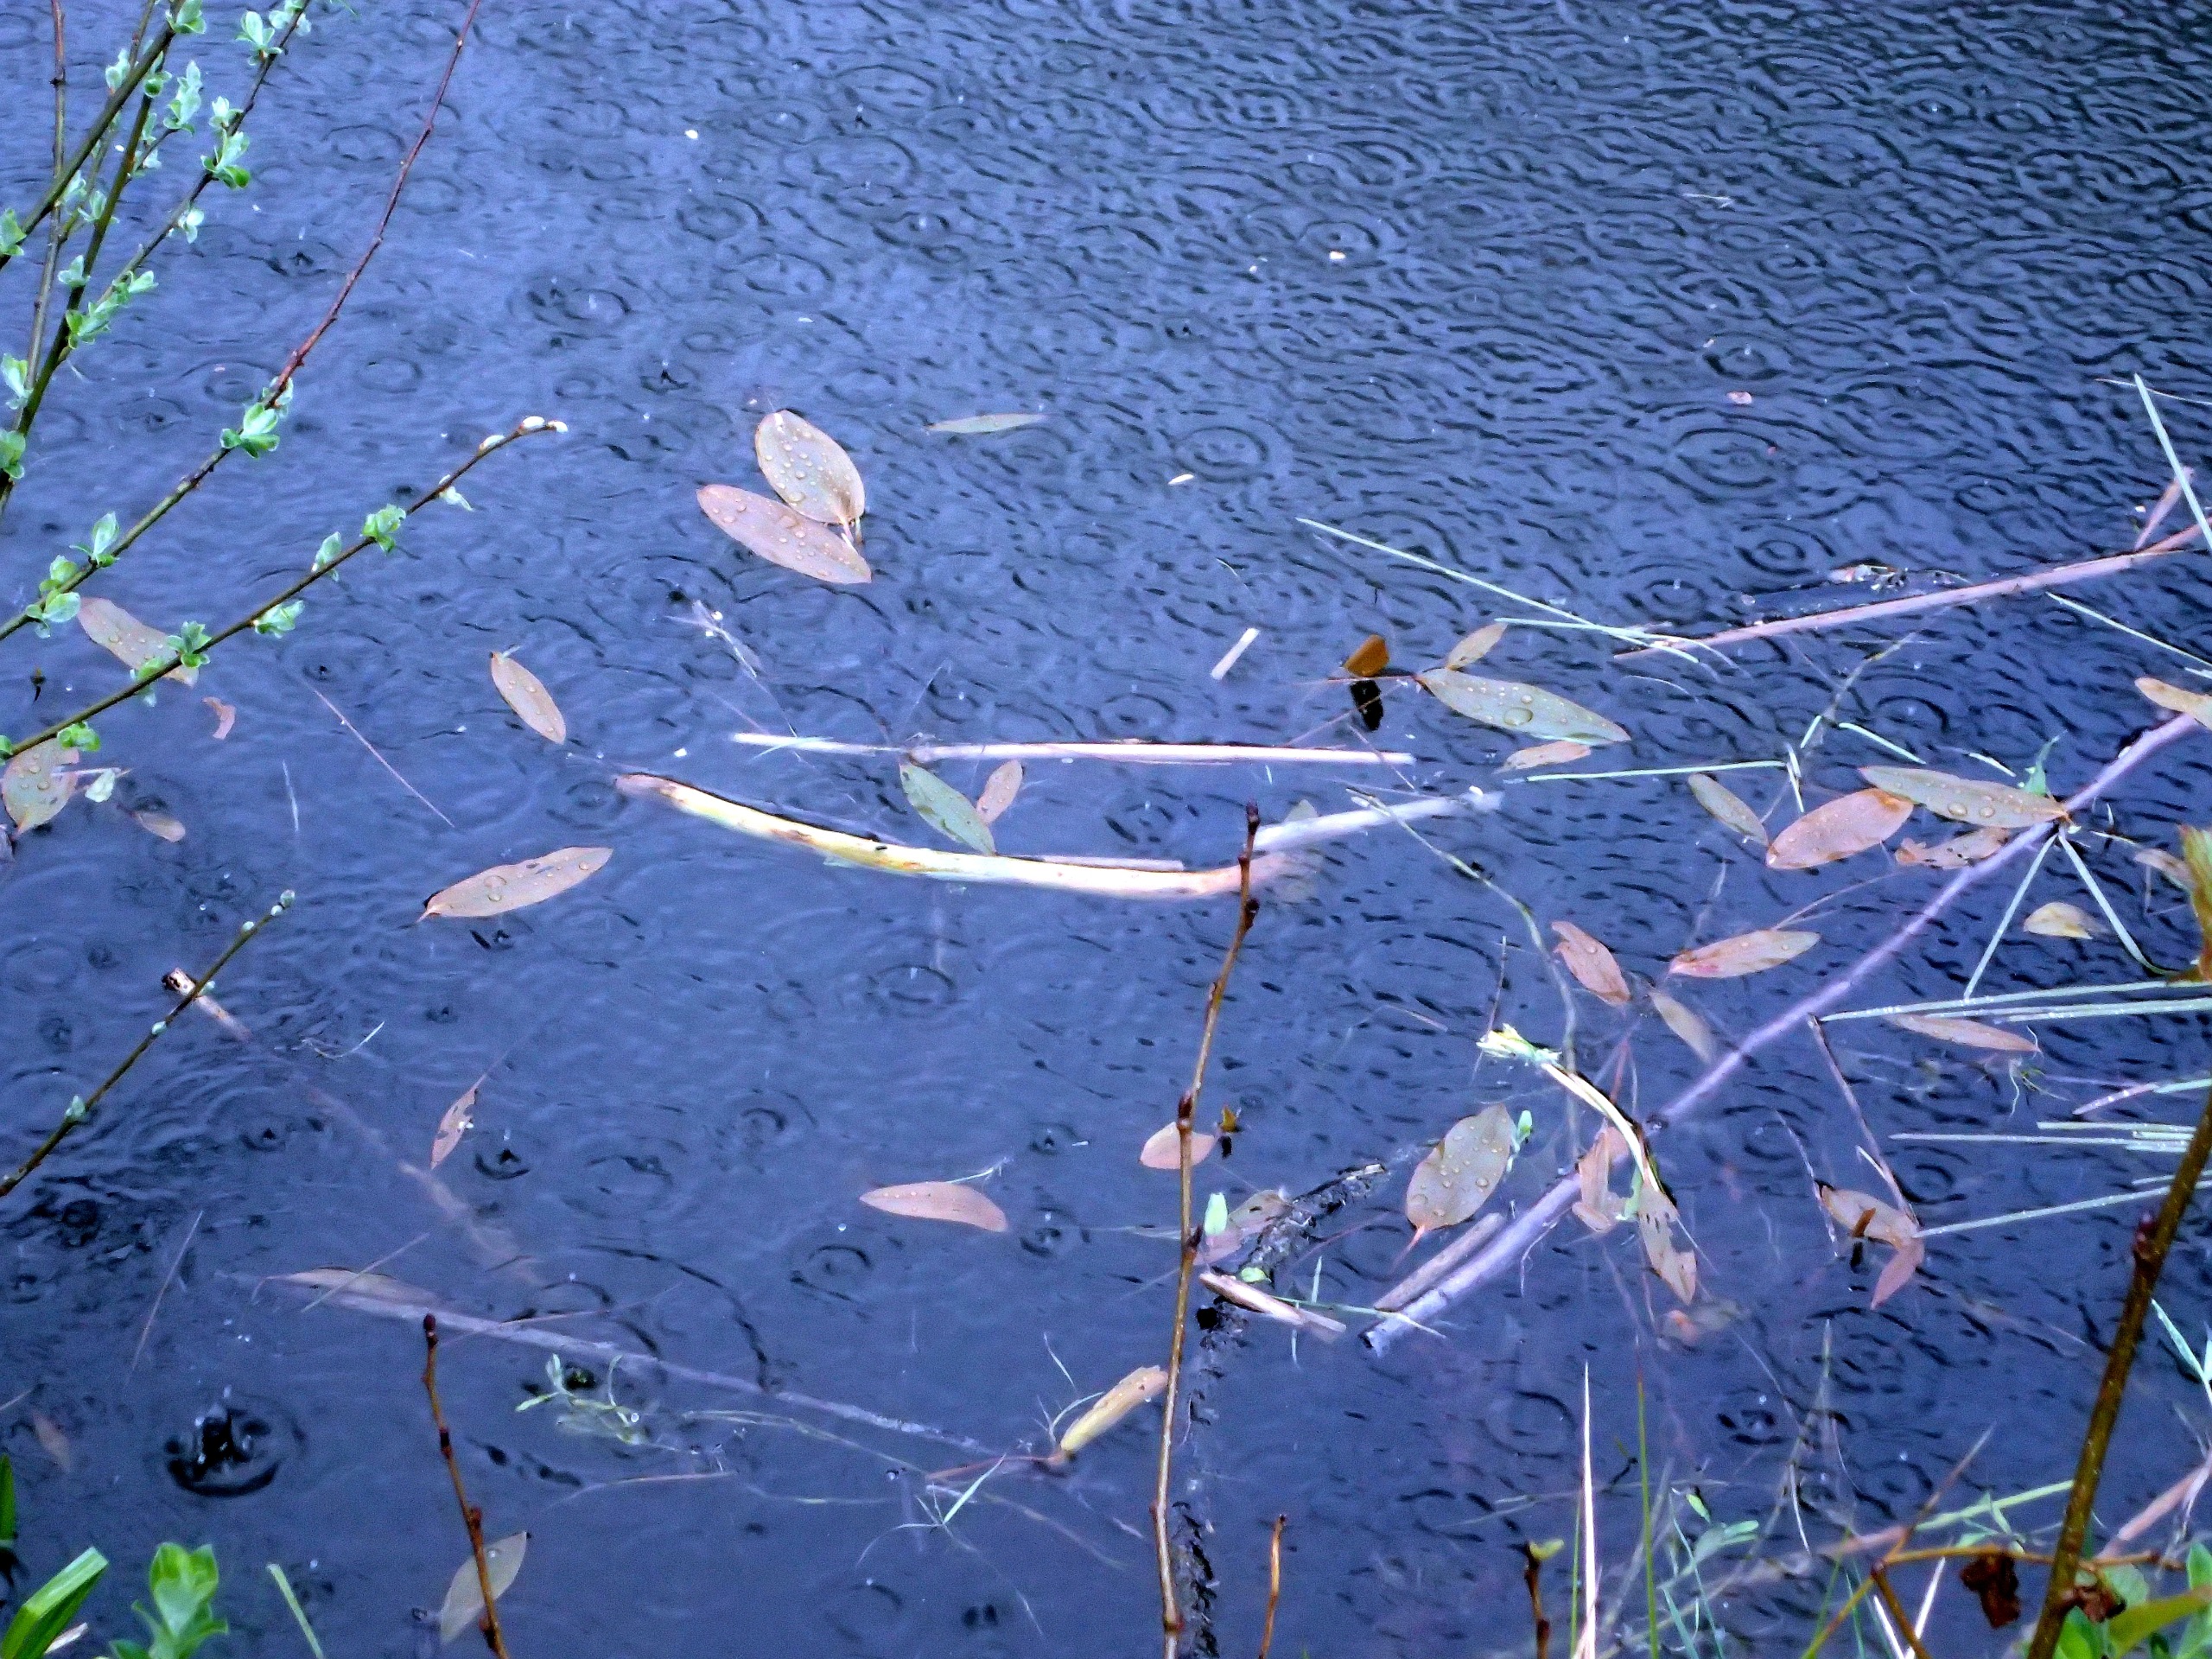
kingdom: Plantae
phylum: Tracheophyta
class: Liliopsida
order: Alismatales
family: Potamogetonaceae
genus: Potamogeton
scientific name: Potamogeton
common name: Vandaks (Potamogeton-slægten)
